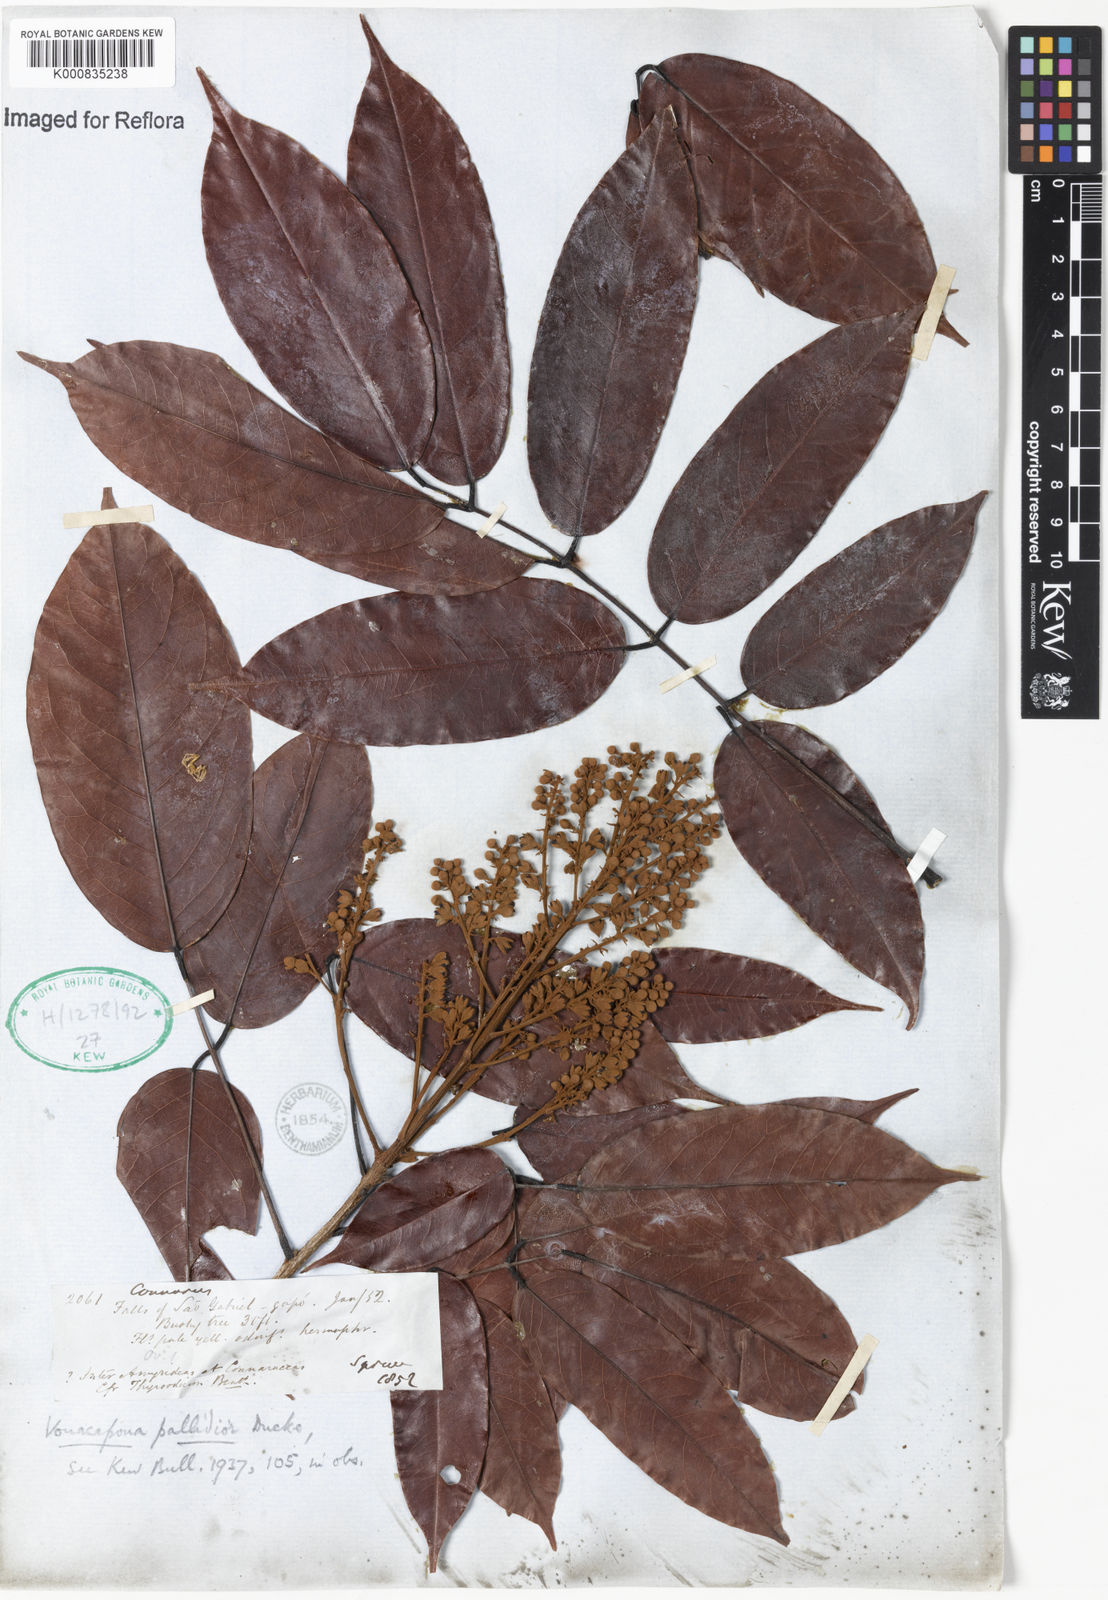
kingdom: Plantae
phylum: Tracheophyta
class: Magnoliopsida
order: Fabales
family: Fabaceae
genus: Vouacapoua
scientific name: Vouacapoua pallidior
